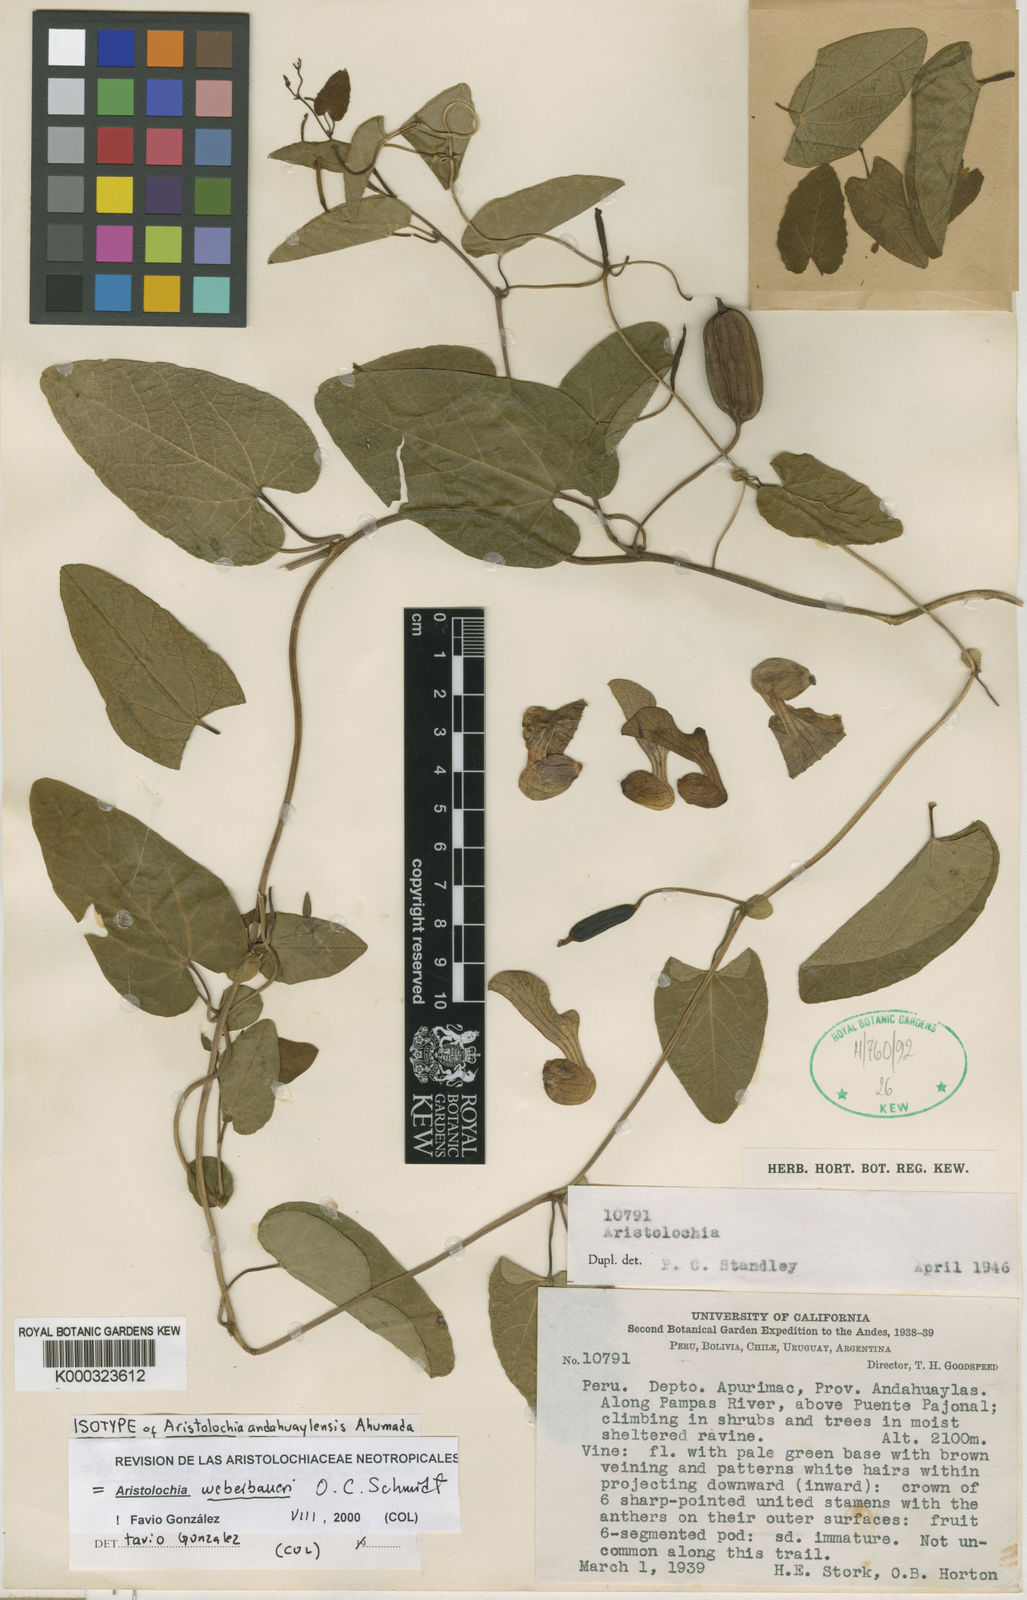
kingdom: Plantae
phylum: Tracheophyta
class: Magnoliopsida
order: Piperales
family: Aristolochiaceae
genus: Aristolochia
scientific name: Aristolochia weberbaueri
